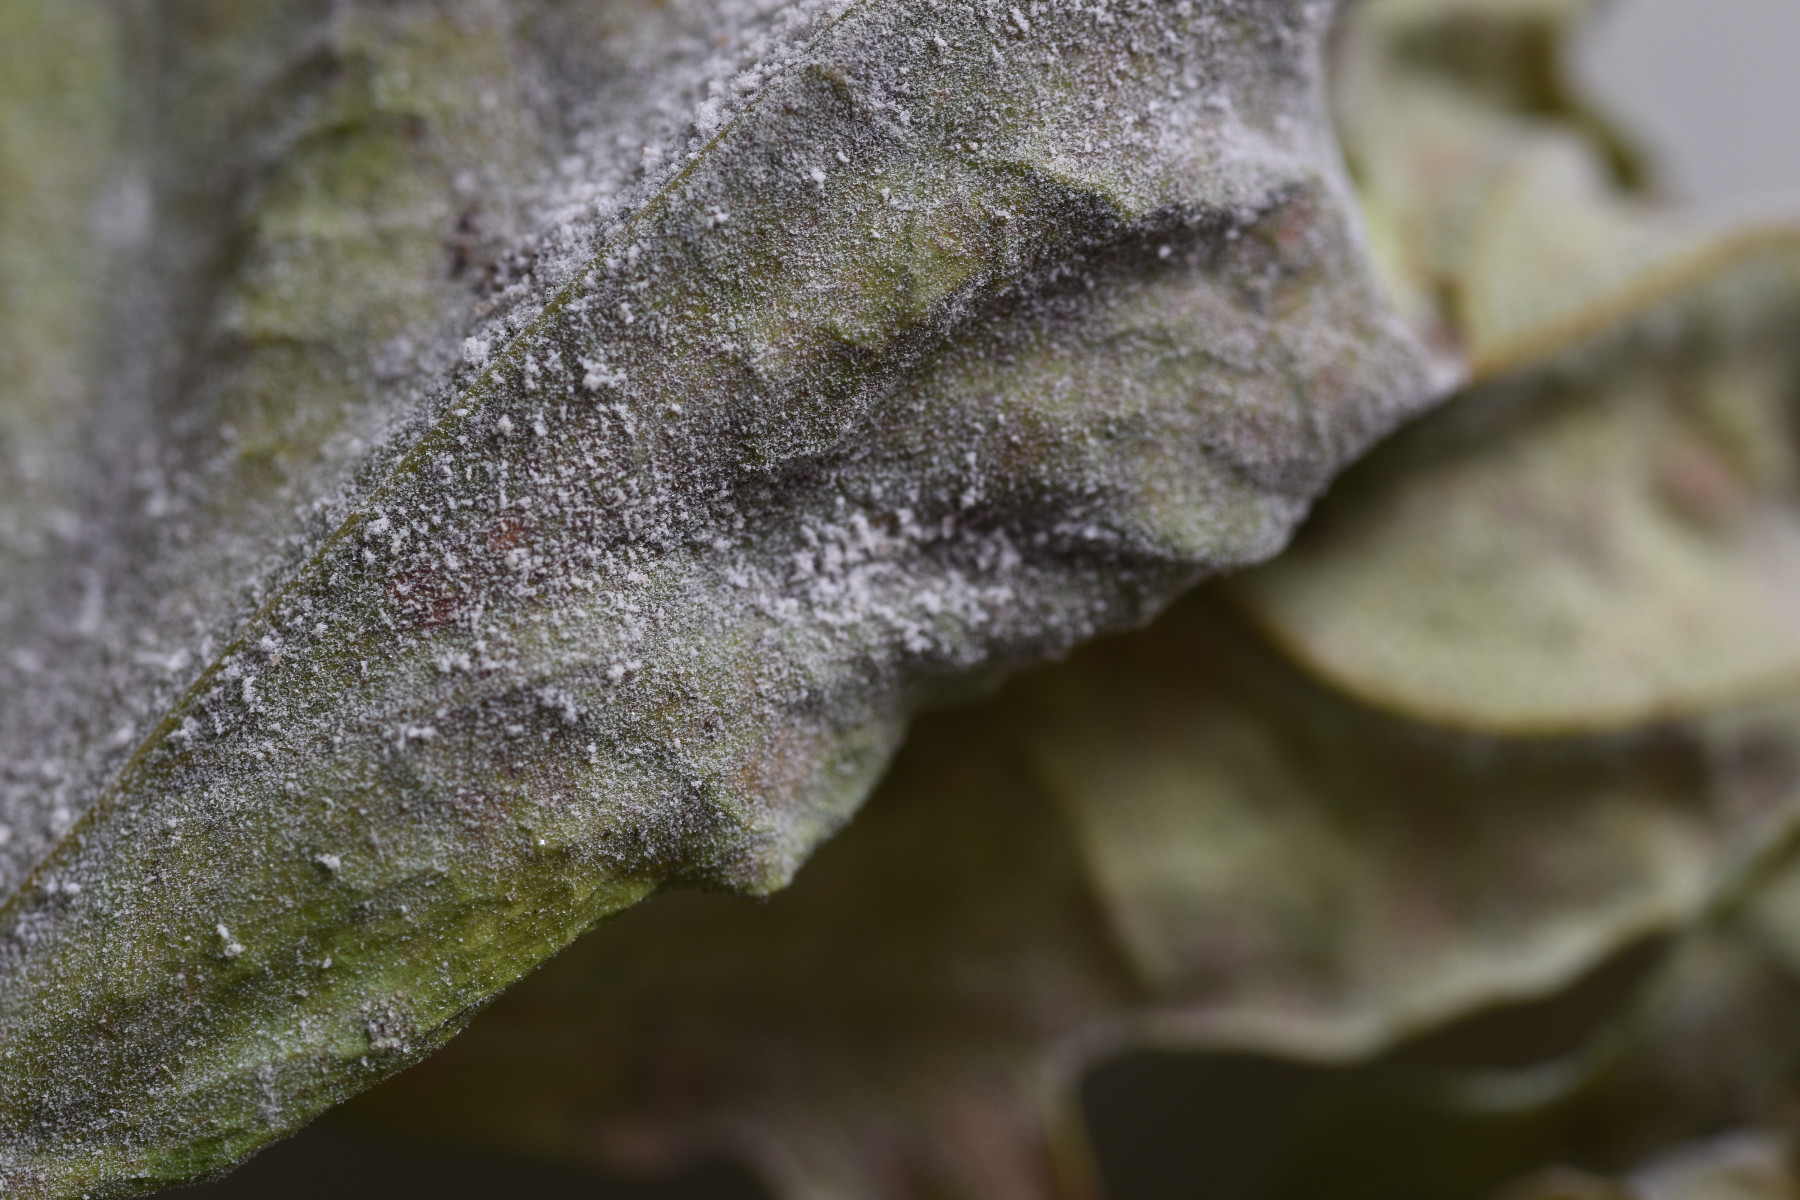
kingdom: Fungi
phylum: Ascomycota
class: Leotiomycetes
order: Helotiales
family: Erysiphaceae
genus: Erysiphe
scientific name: Erysiphe alphitoides
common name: ege-meldug
